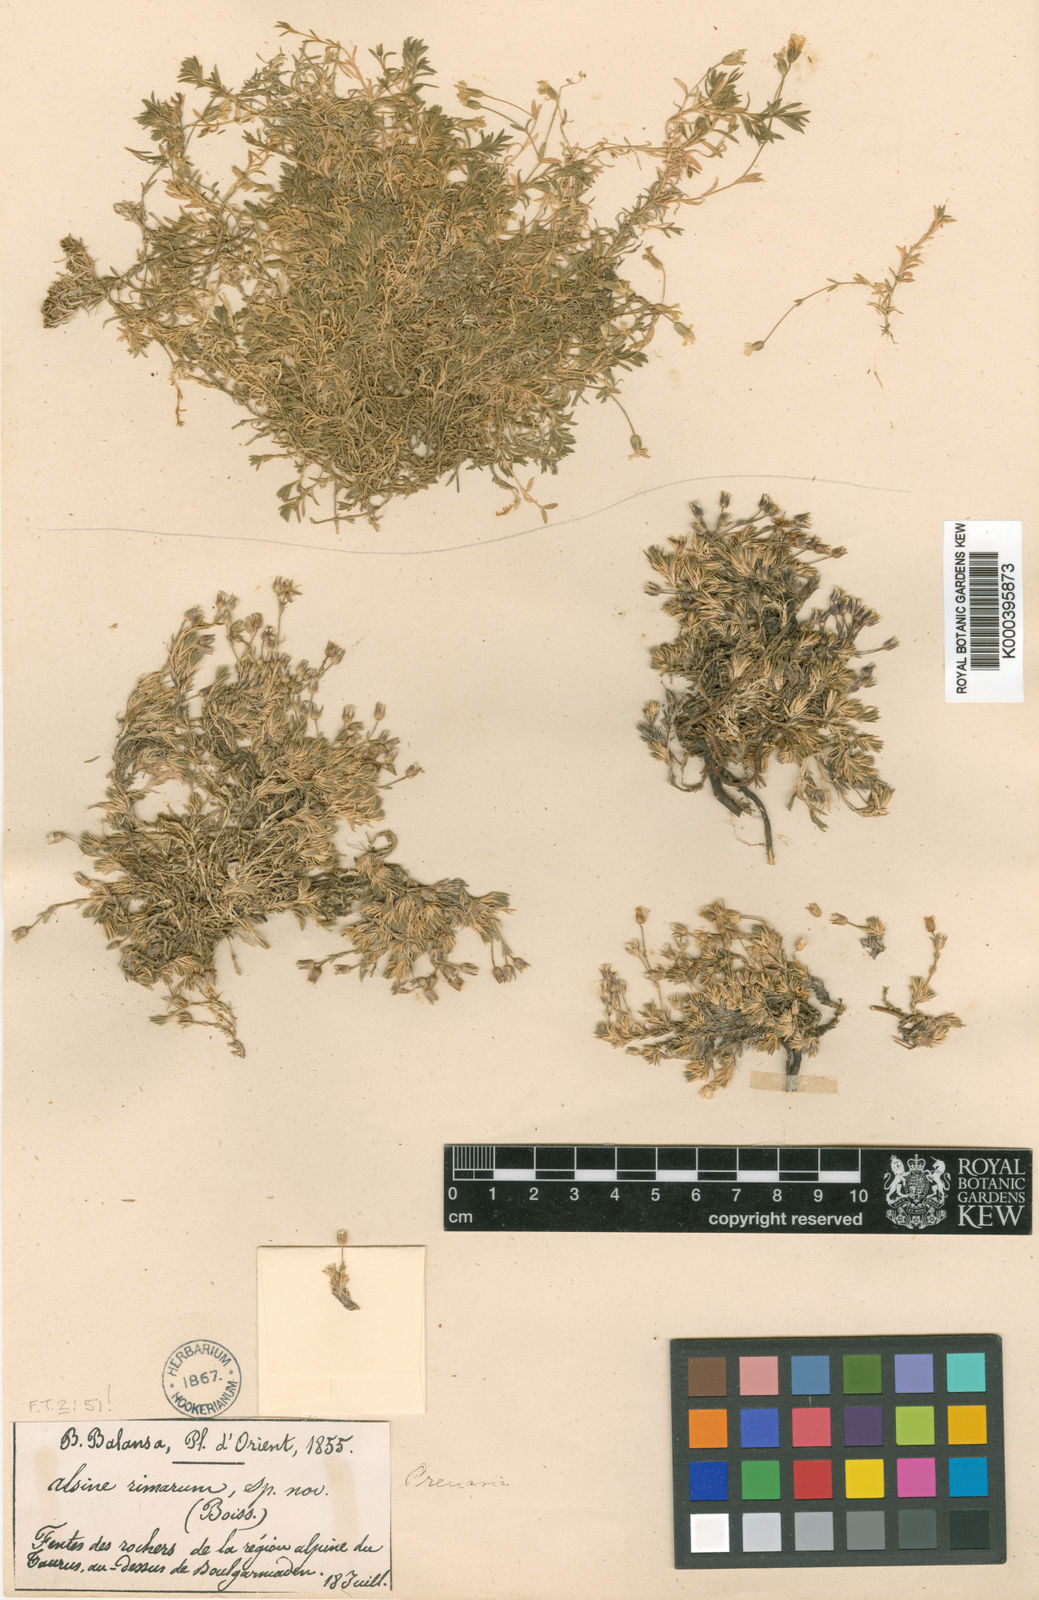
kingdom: Plantae
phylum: Tracheophyta
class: Magnoliopsida
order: Caryophyllales
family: Caryophyllaceae
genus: Sabulina
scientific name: Sabulina rimarum
